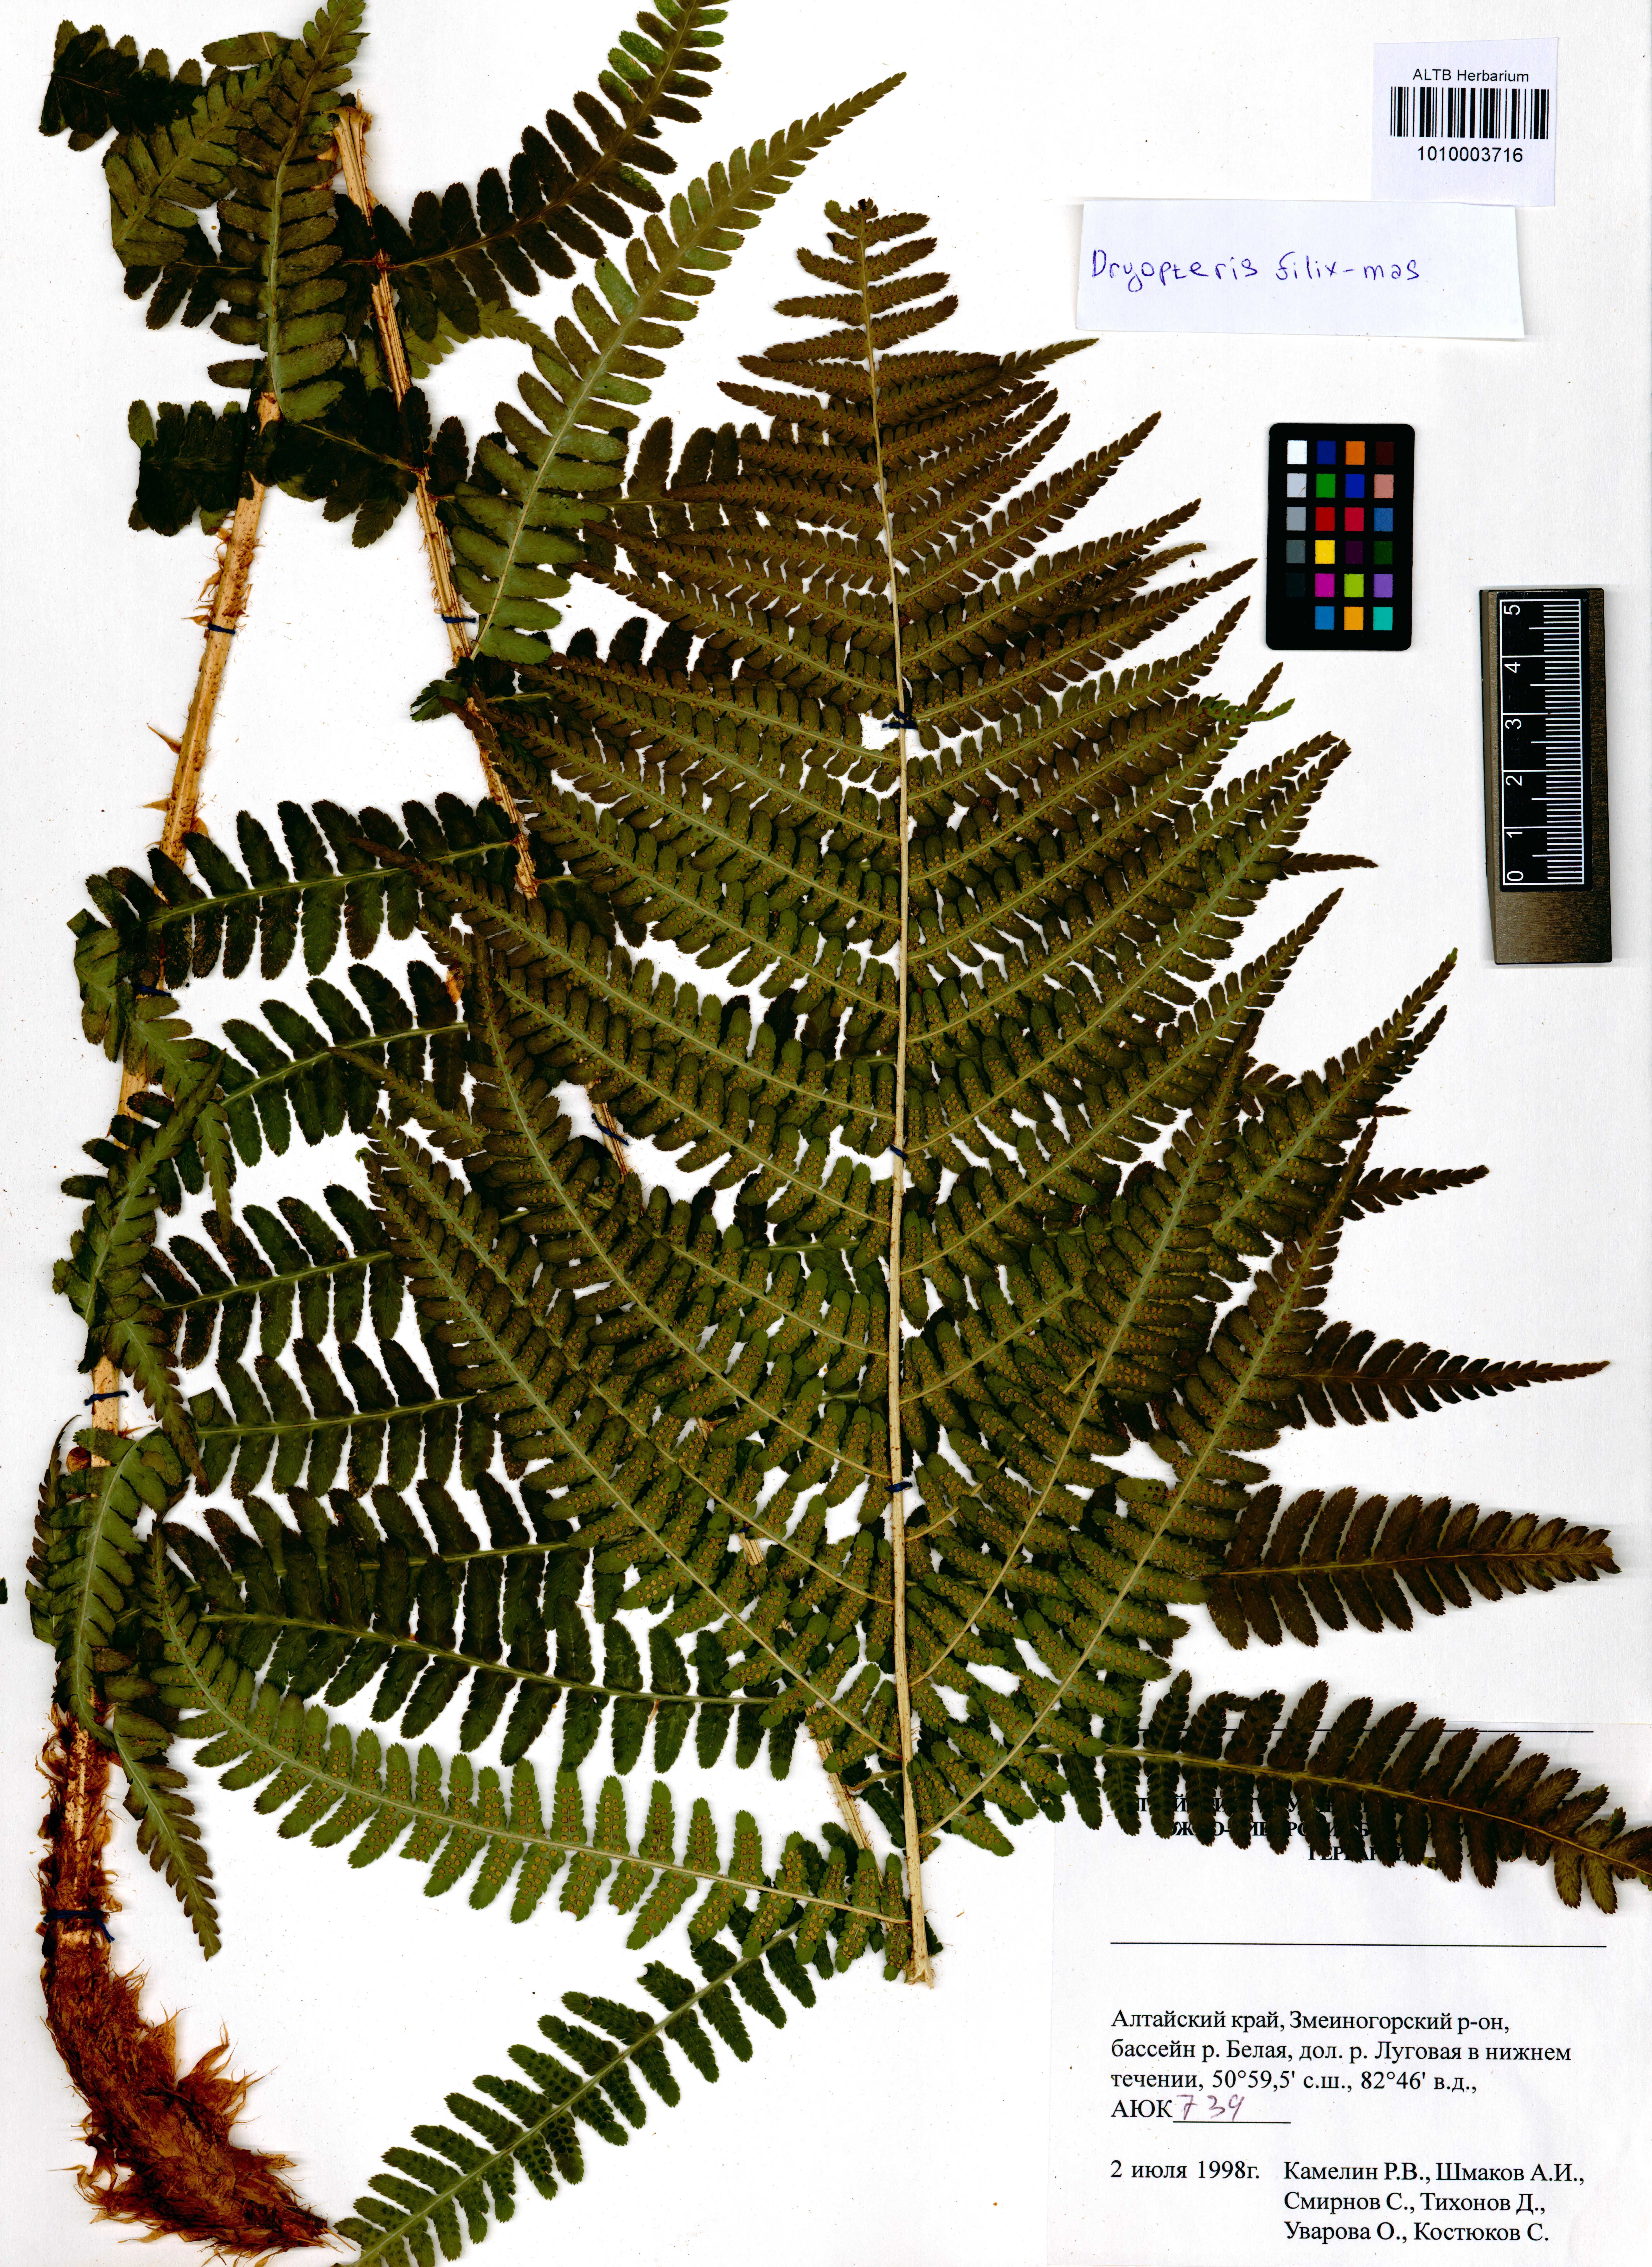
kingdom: Plantae
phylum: Tracheophyta
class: Polypodiopsida
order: Polypodiales
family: Dryopteridaceae
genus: Dryopteris
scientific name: Dryopteris filix-mas
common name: Male fern
